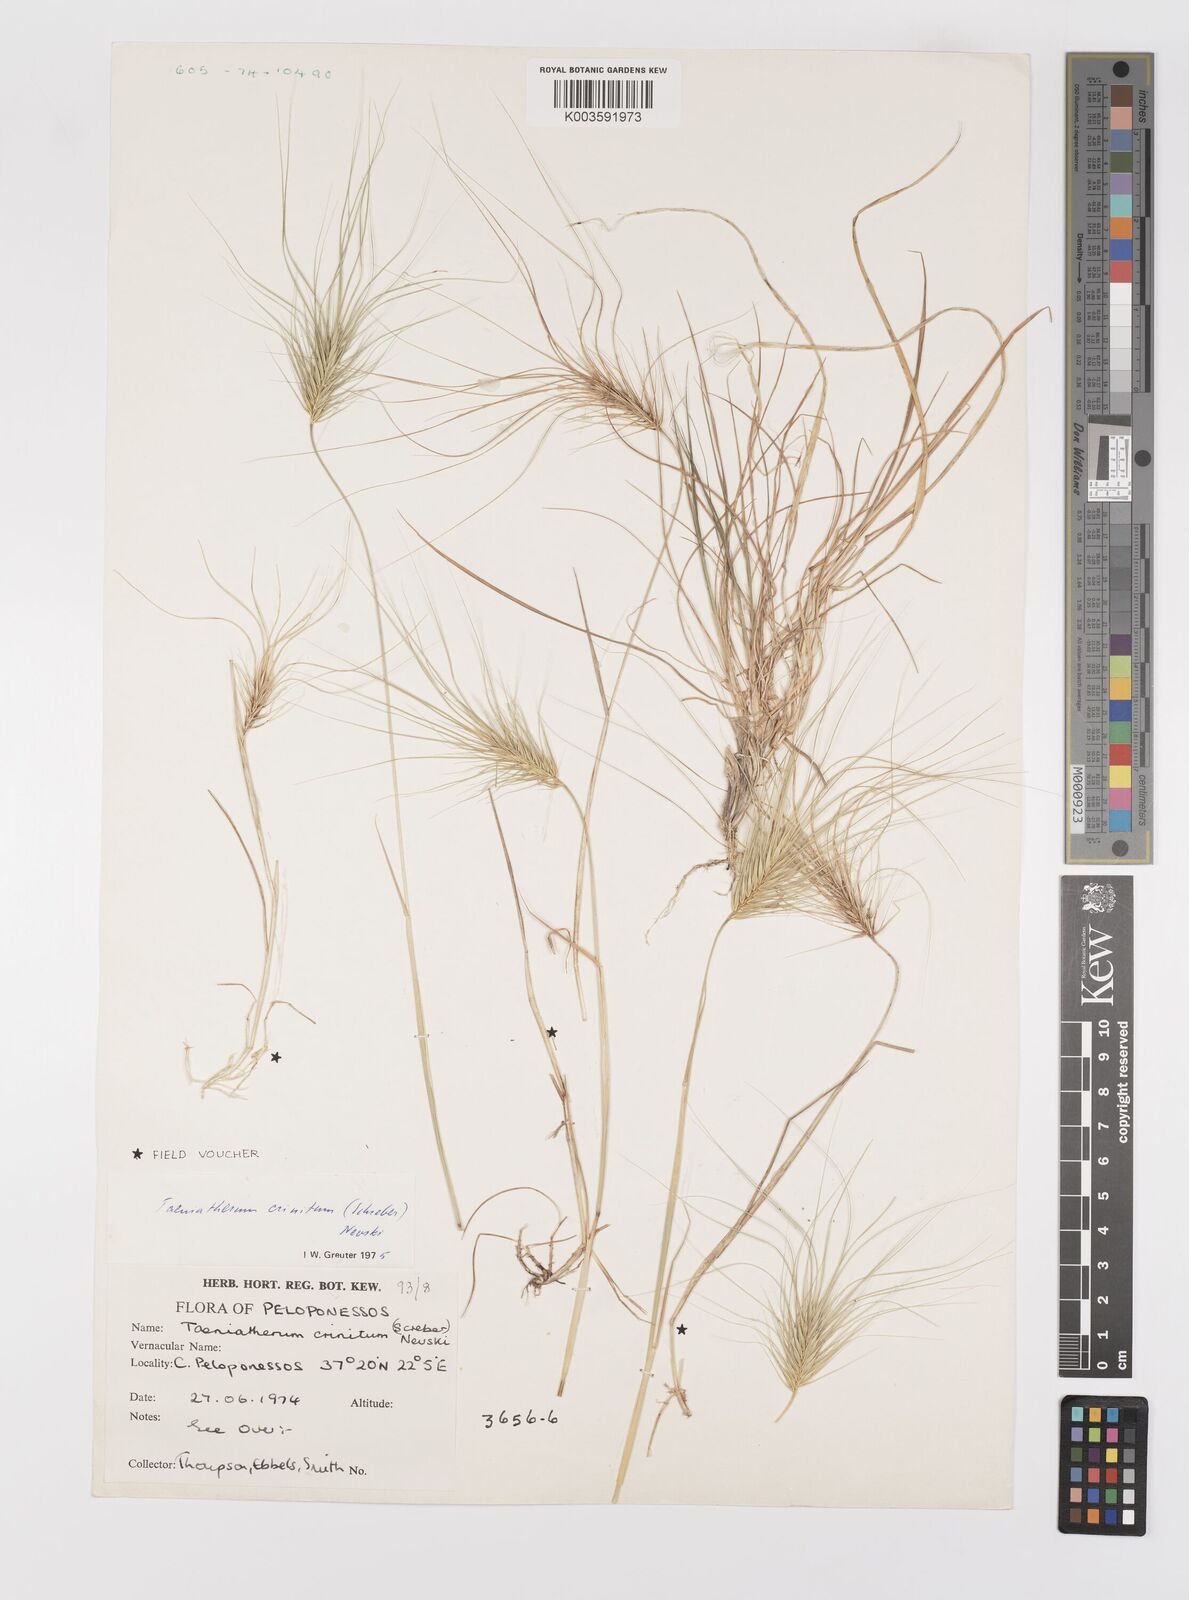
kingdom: Plantae
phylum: Tracheophyta
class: Liliopsida
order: Poales
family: Poaceae
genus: Taeniatherum
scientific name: Taeniatherum caput-medusae
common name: Medusahead
